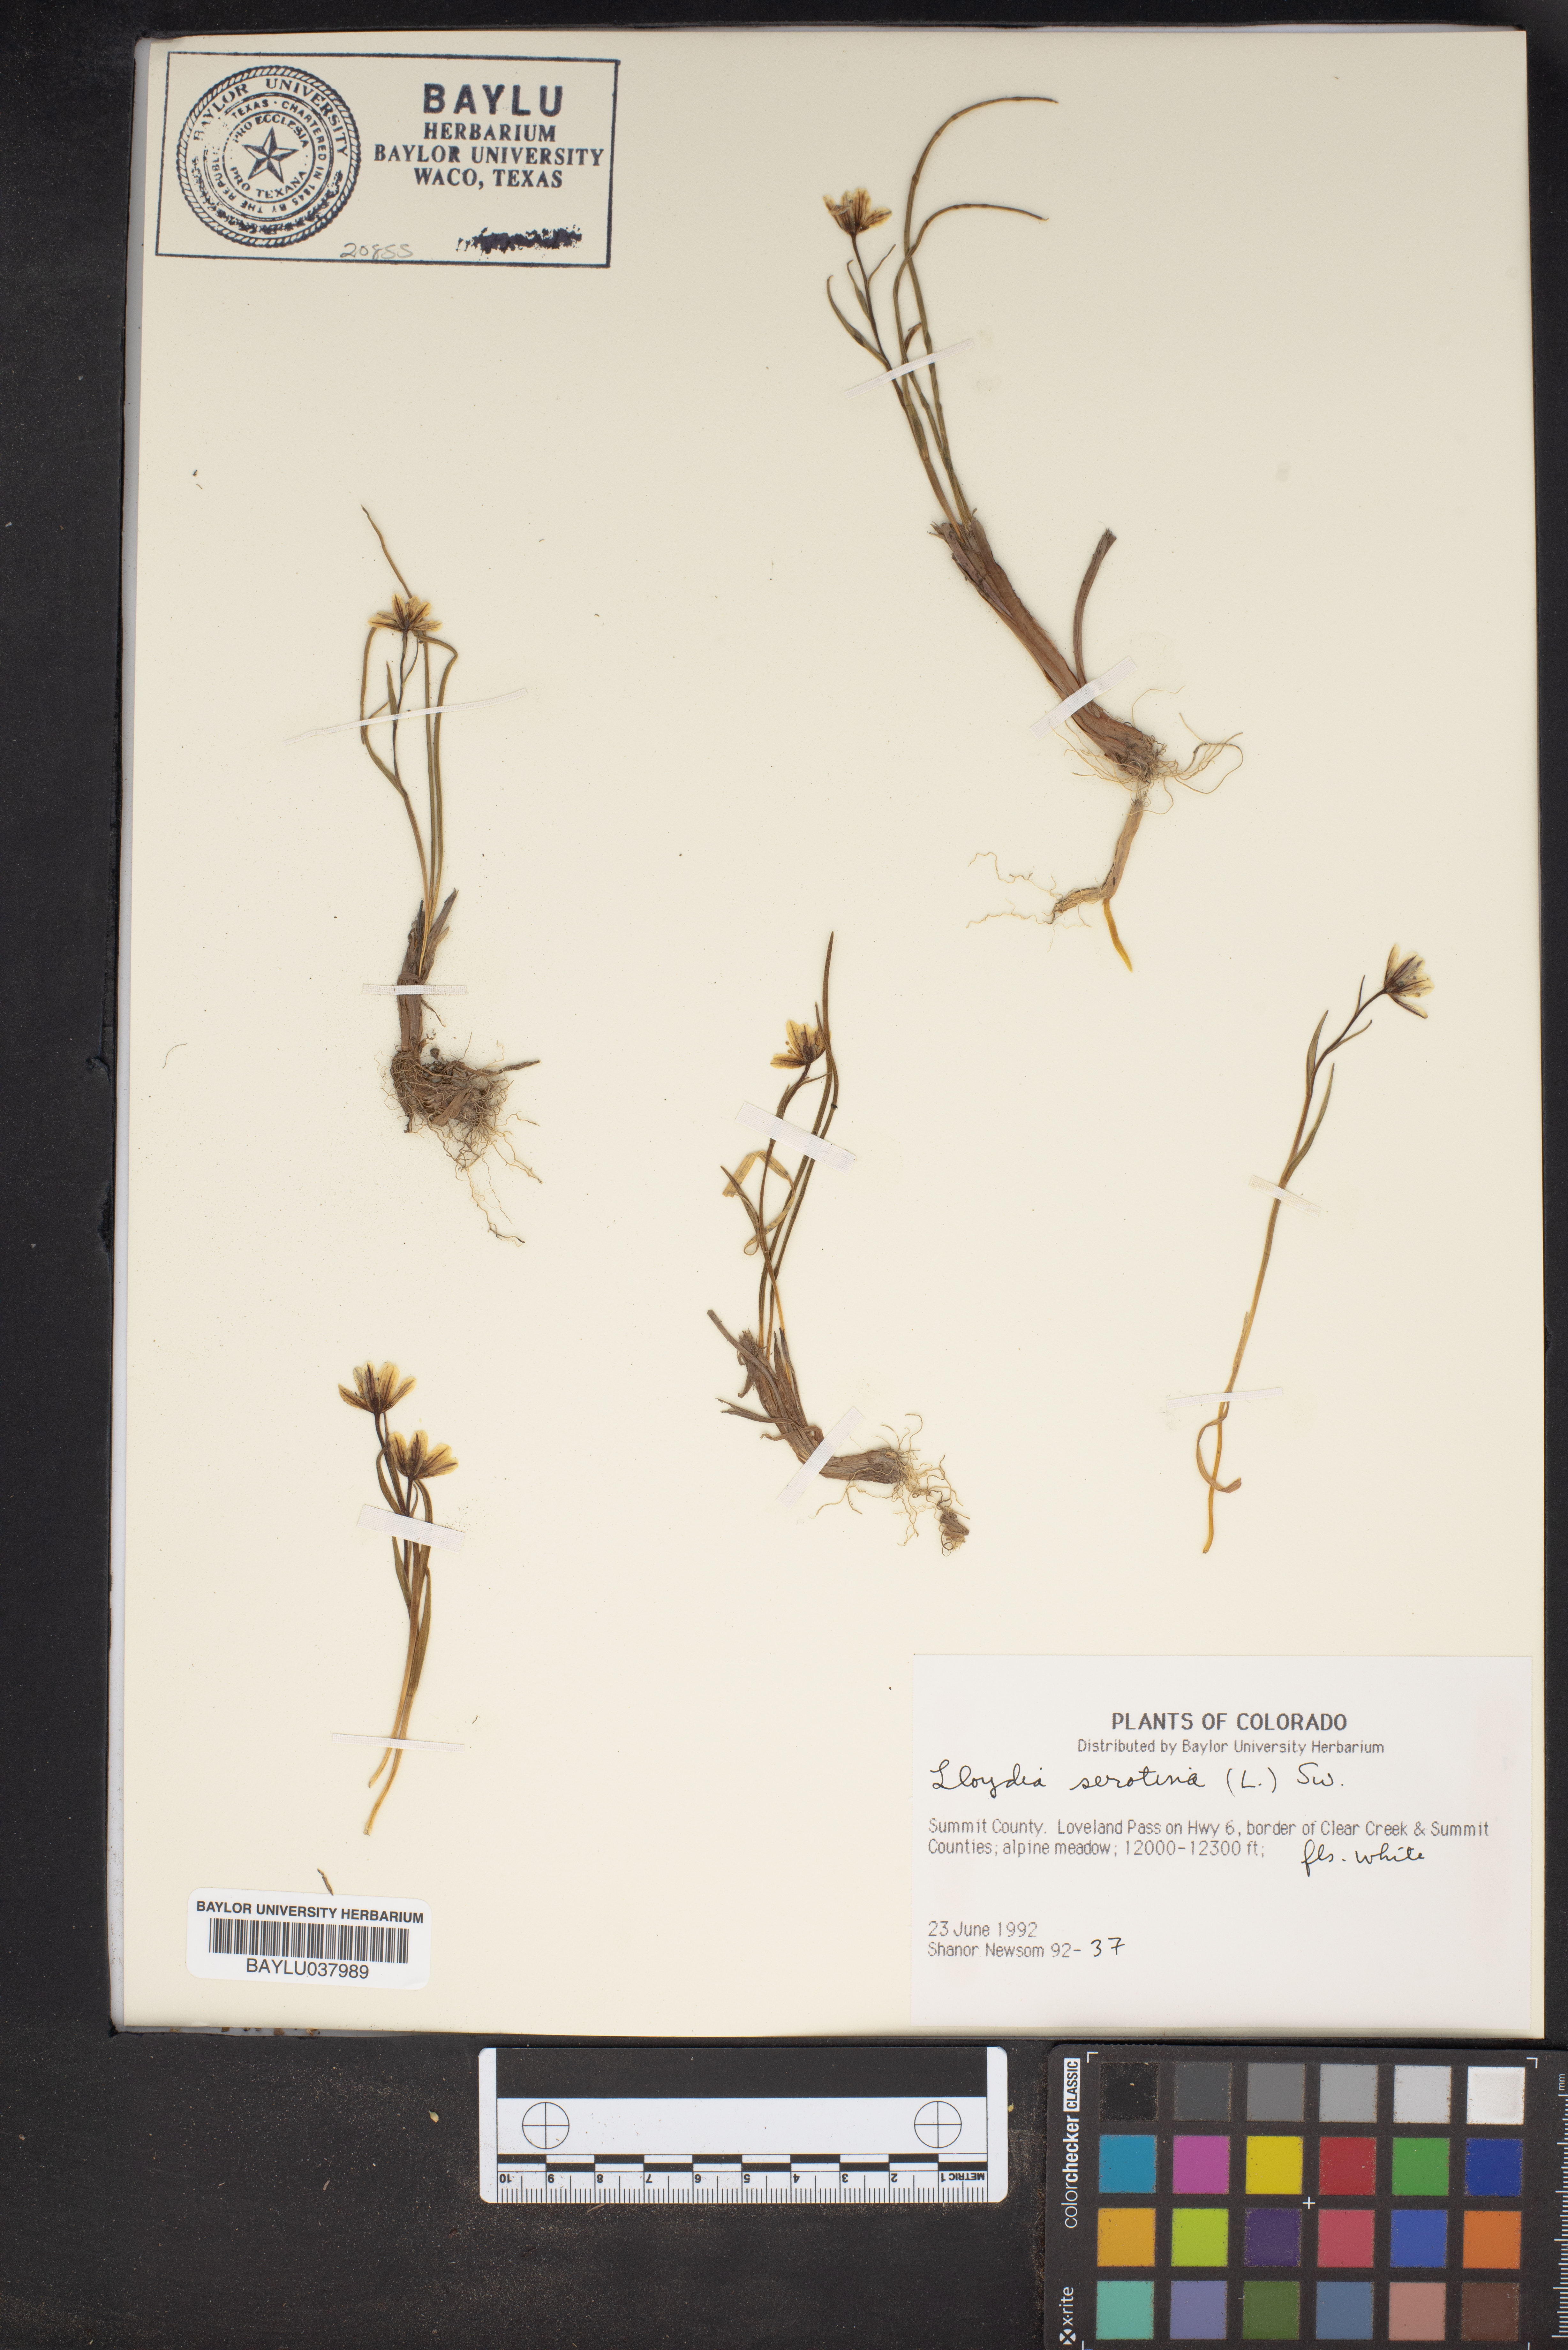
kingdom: Plantae
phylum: Tracheophyta
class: Liliopsida
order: Liliales
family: Liliaceae
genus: Gagea
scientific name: Gagea serotina
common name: Snowdon lily
